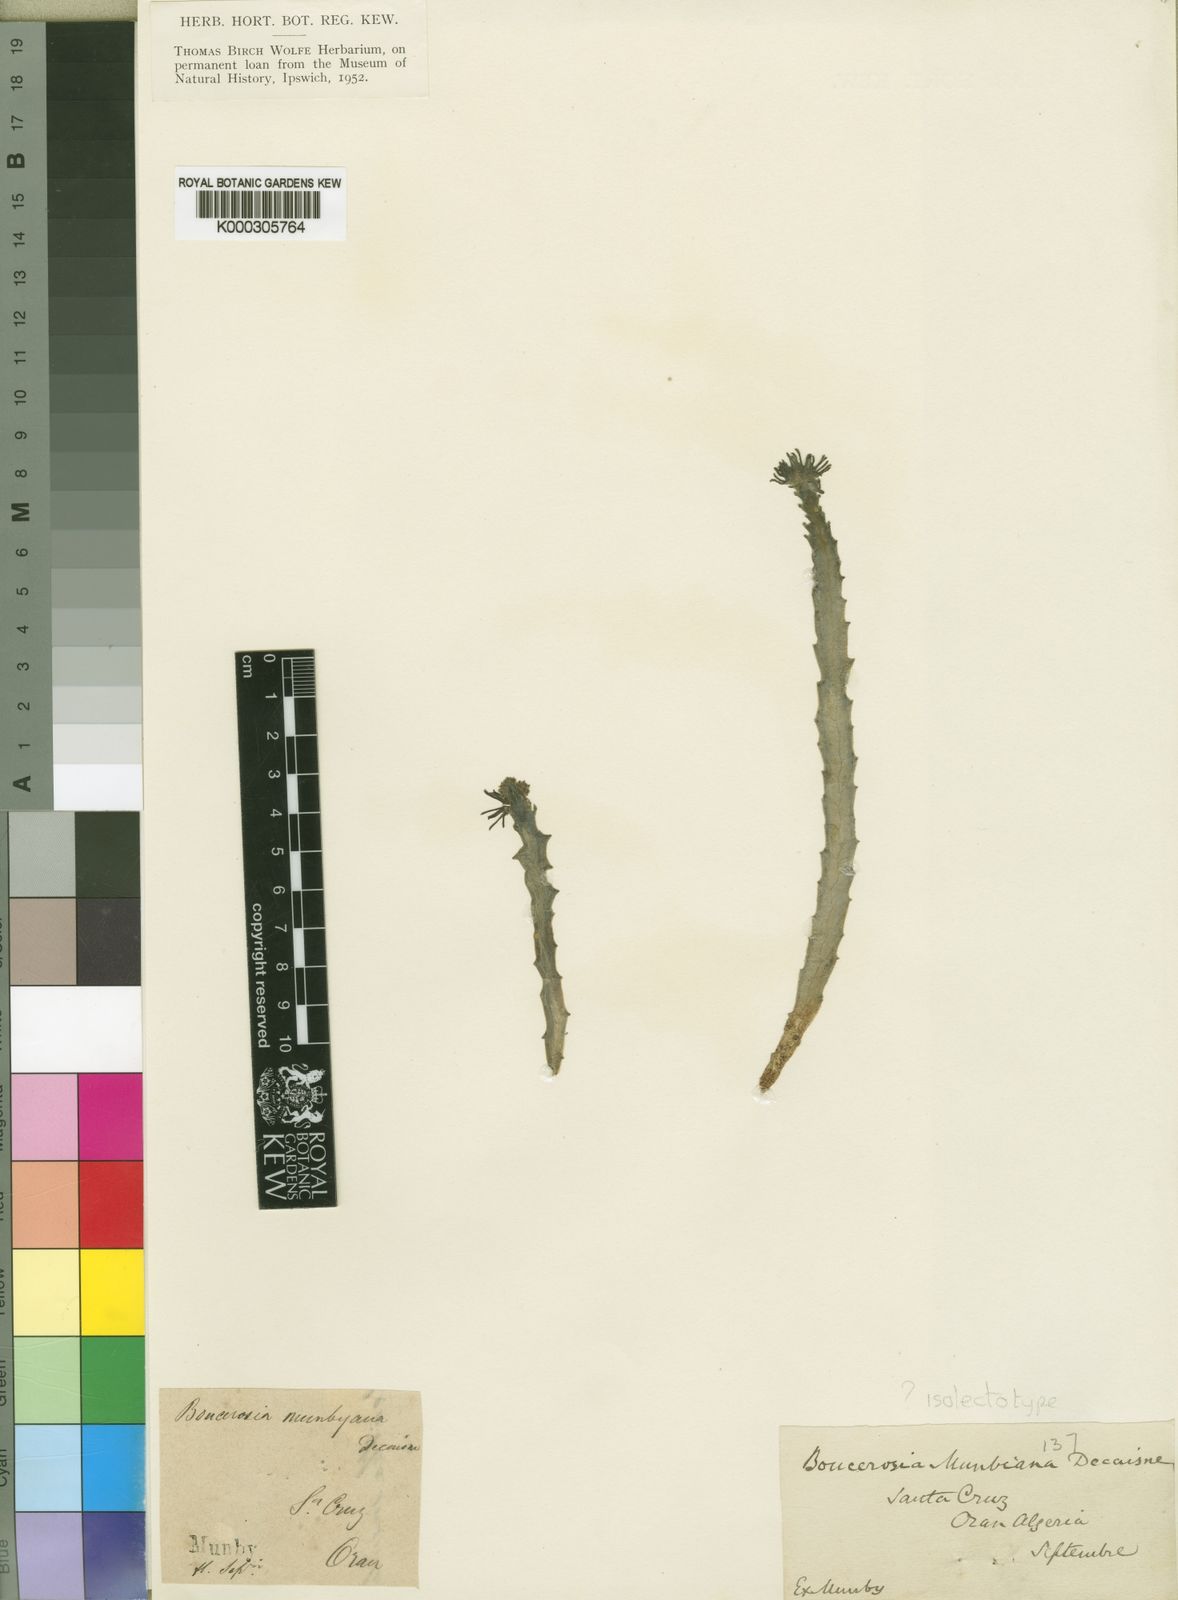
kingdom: Plantae
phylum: Tracheophyta
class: Magnoliopsida
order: Gentianales
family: Apocynaceae
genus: Ceropegia
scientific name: Ceropegia munbyana
